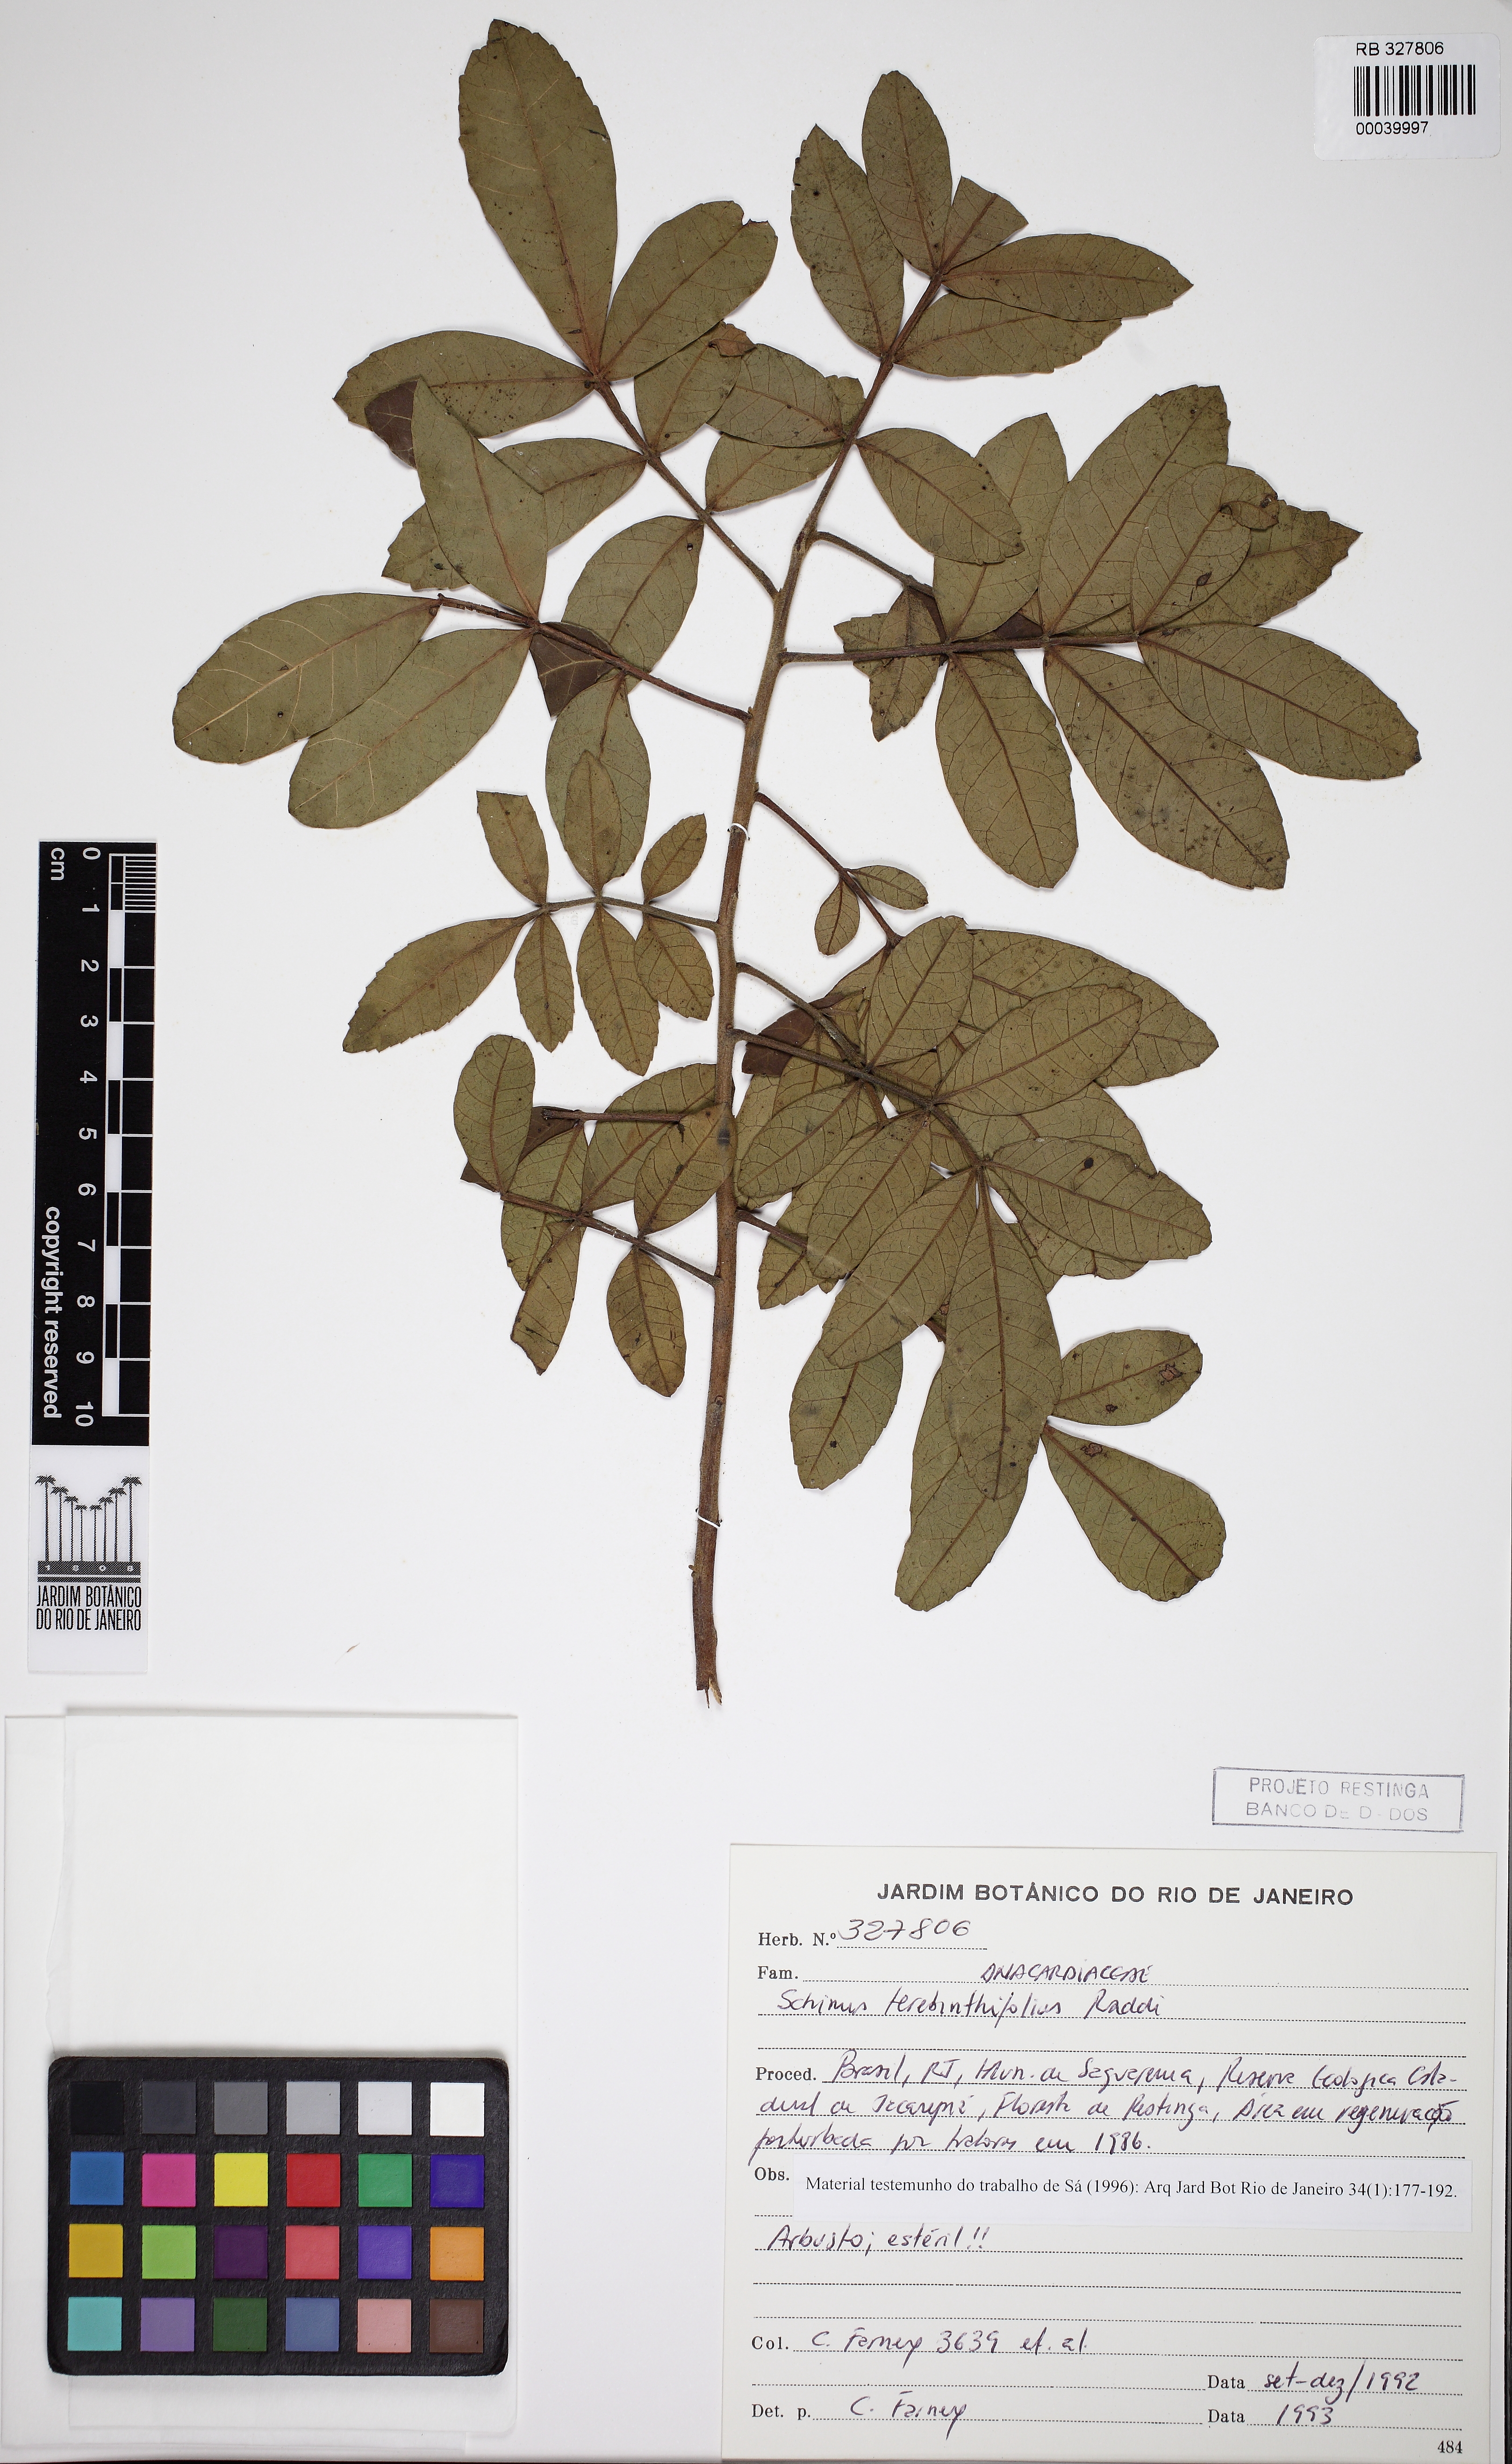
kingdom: Plantae
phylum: Tracheophyta
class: Magnoliopsida
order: Sapindales
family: Anacardiaceae
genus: Schinus
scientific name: Schinus terebinthifolia
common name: Brazilian peppertree
